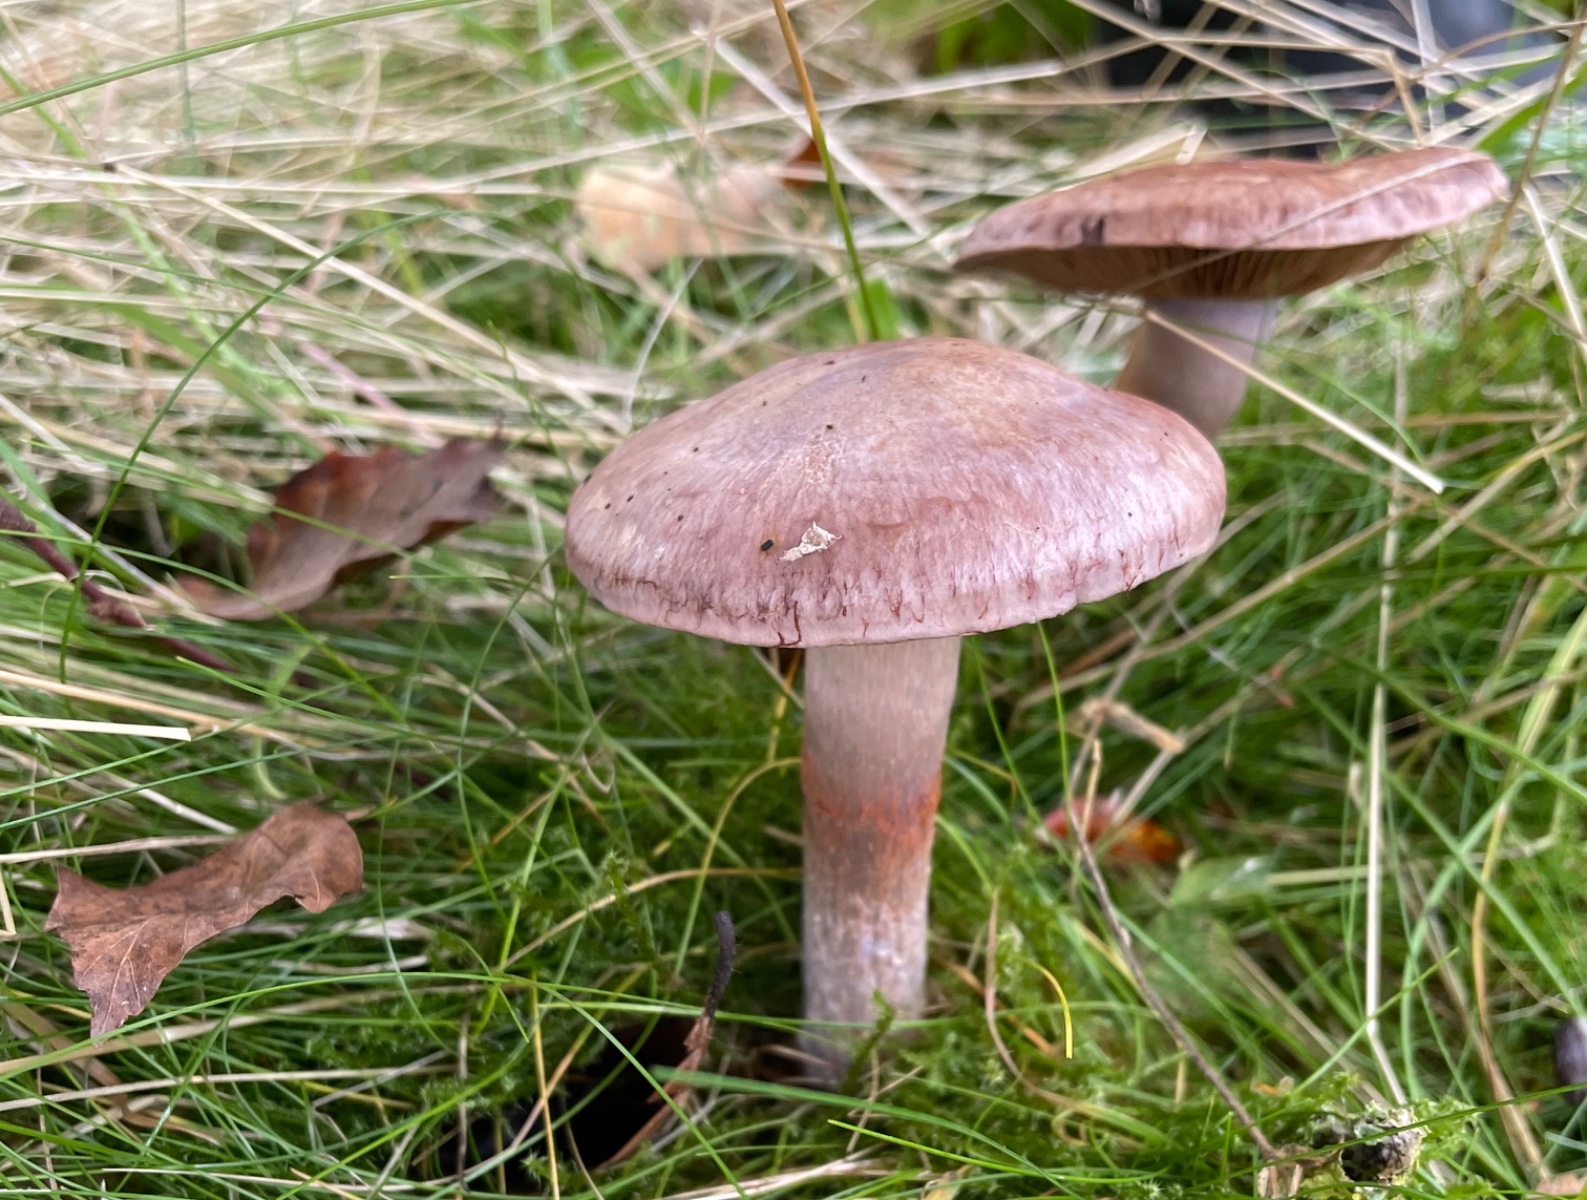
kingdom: Fungi
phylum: Basidiomycota
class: Agaricomycetes
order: Agaricales
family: Cortinariaceae
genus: Cortinarius
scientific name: Cortinarius
